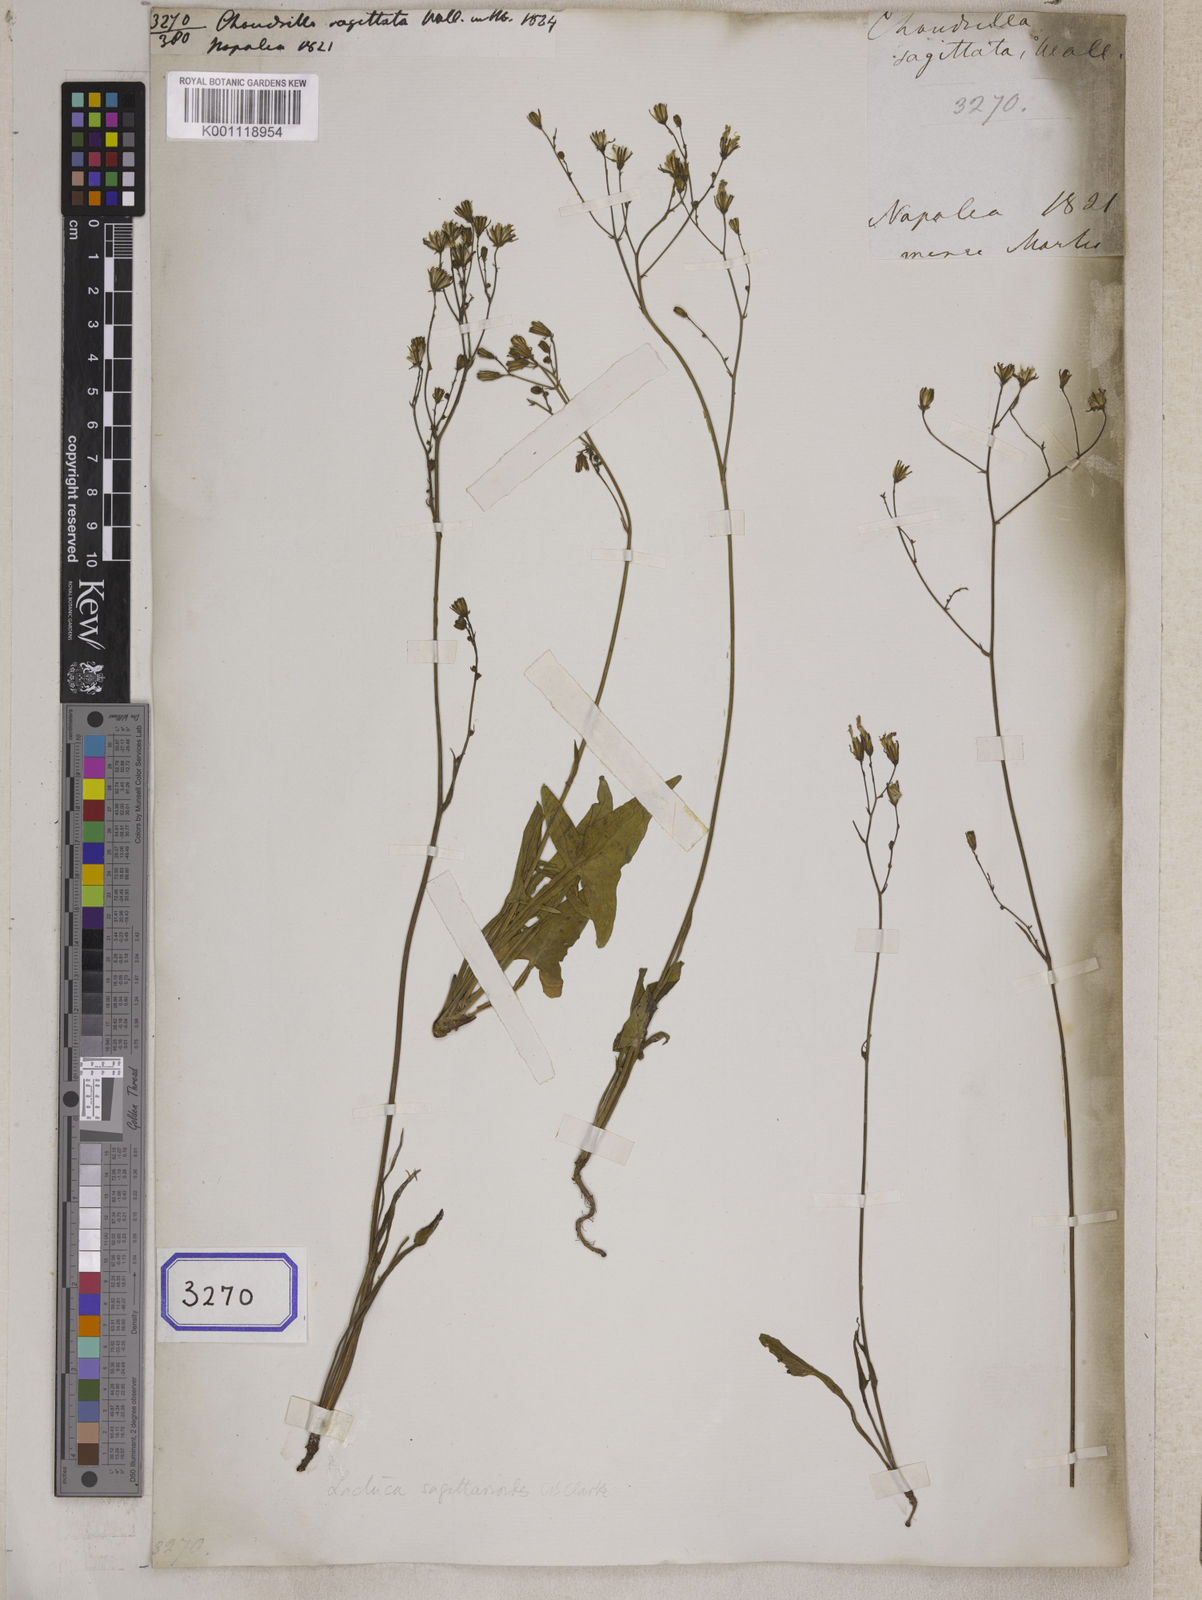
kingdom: Plantae
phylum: Tracheophyta
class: Magnoliopsida
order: Asterales
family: Asteraceae
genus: Ixeridium
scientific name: Ixeridium sagittarioides
